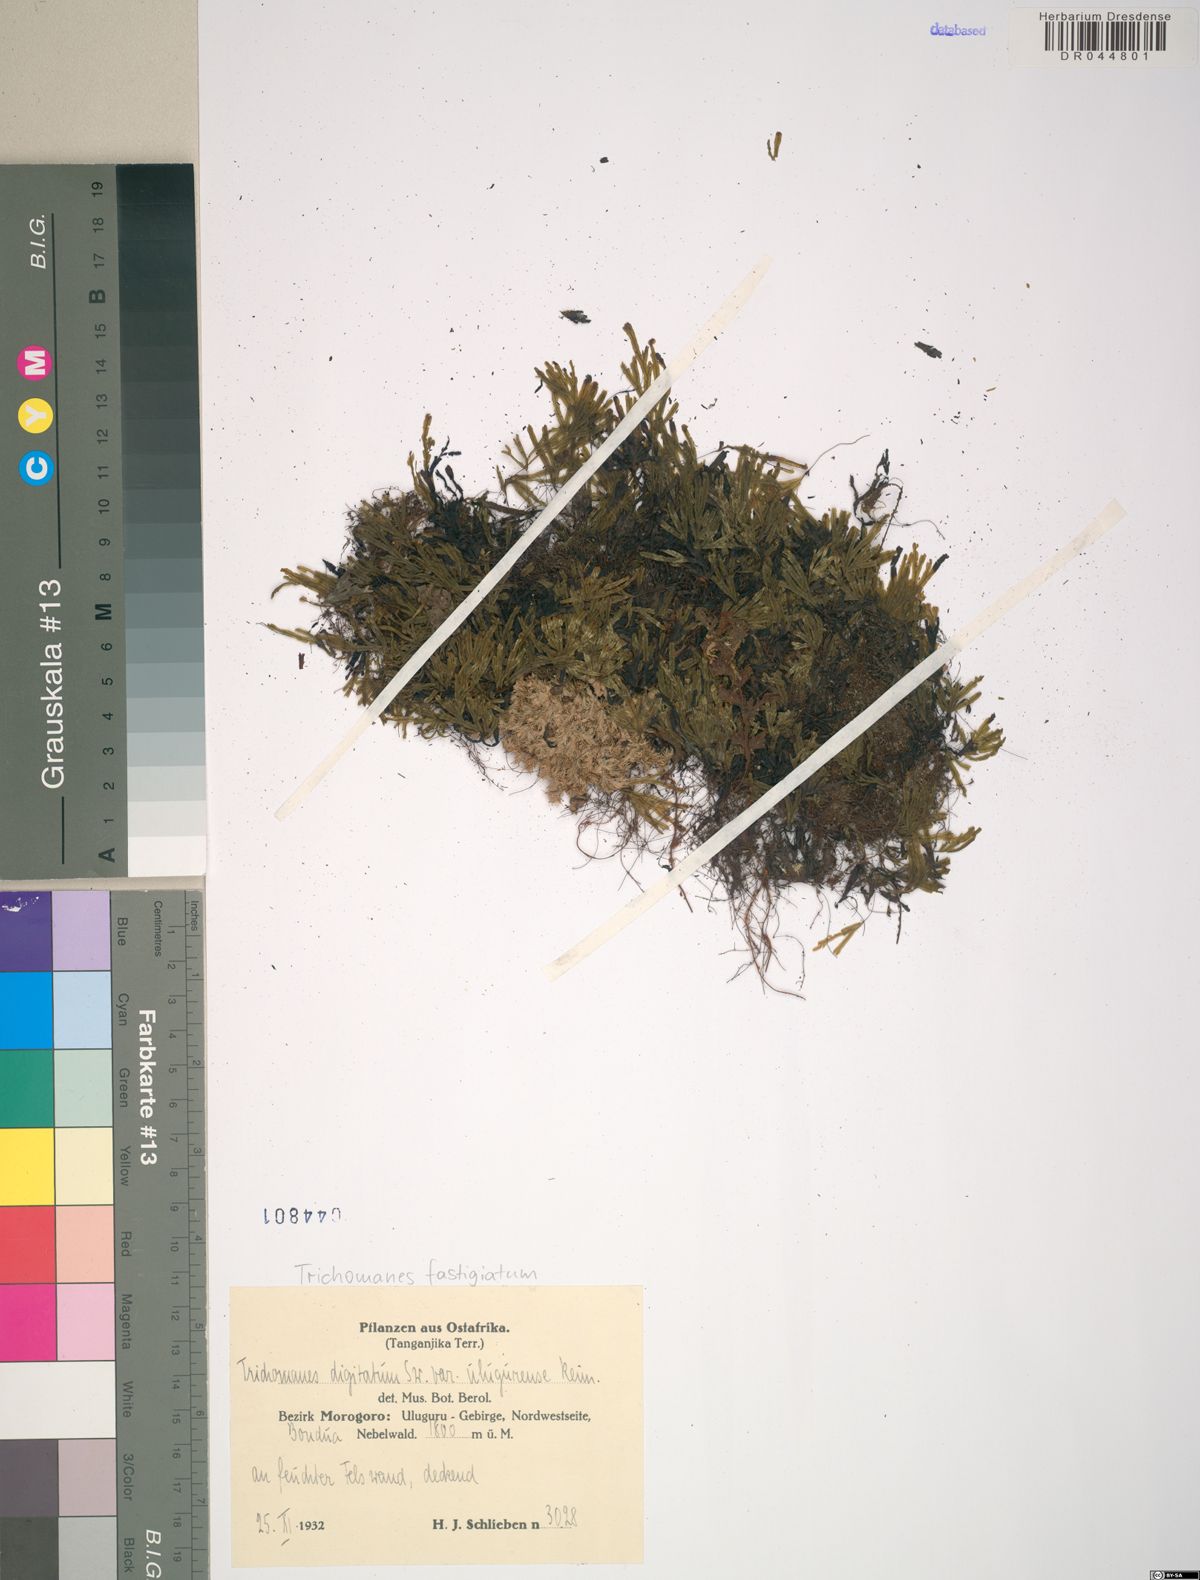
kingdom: Plantae
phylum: Tracheophyta
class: Polypodiopsida
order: Hymenophyllales
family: Hymenophyllaceae
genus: Hymenophyllum
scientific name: Hymenophyllum digitatum
